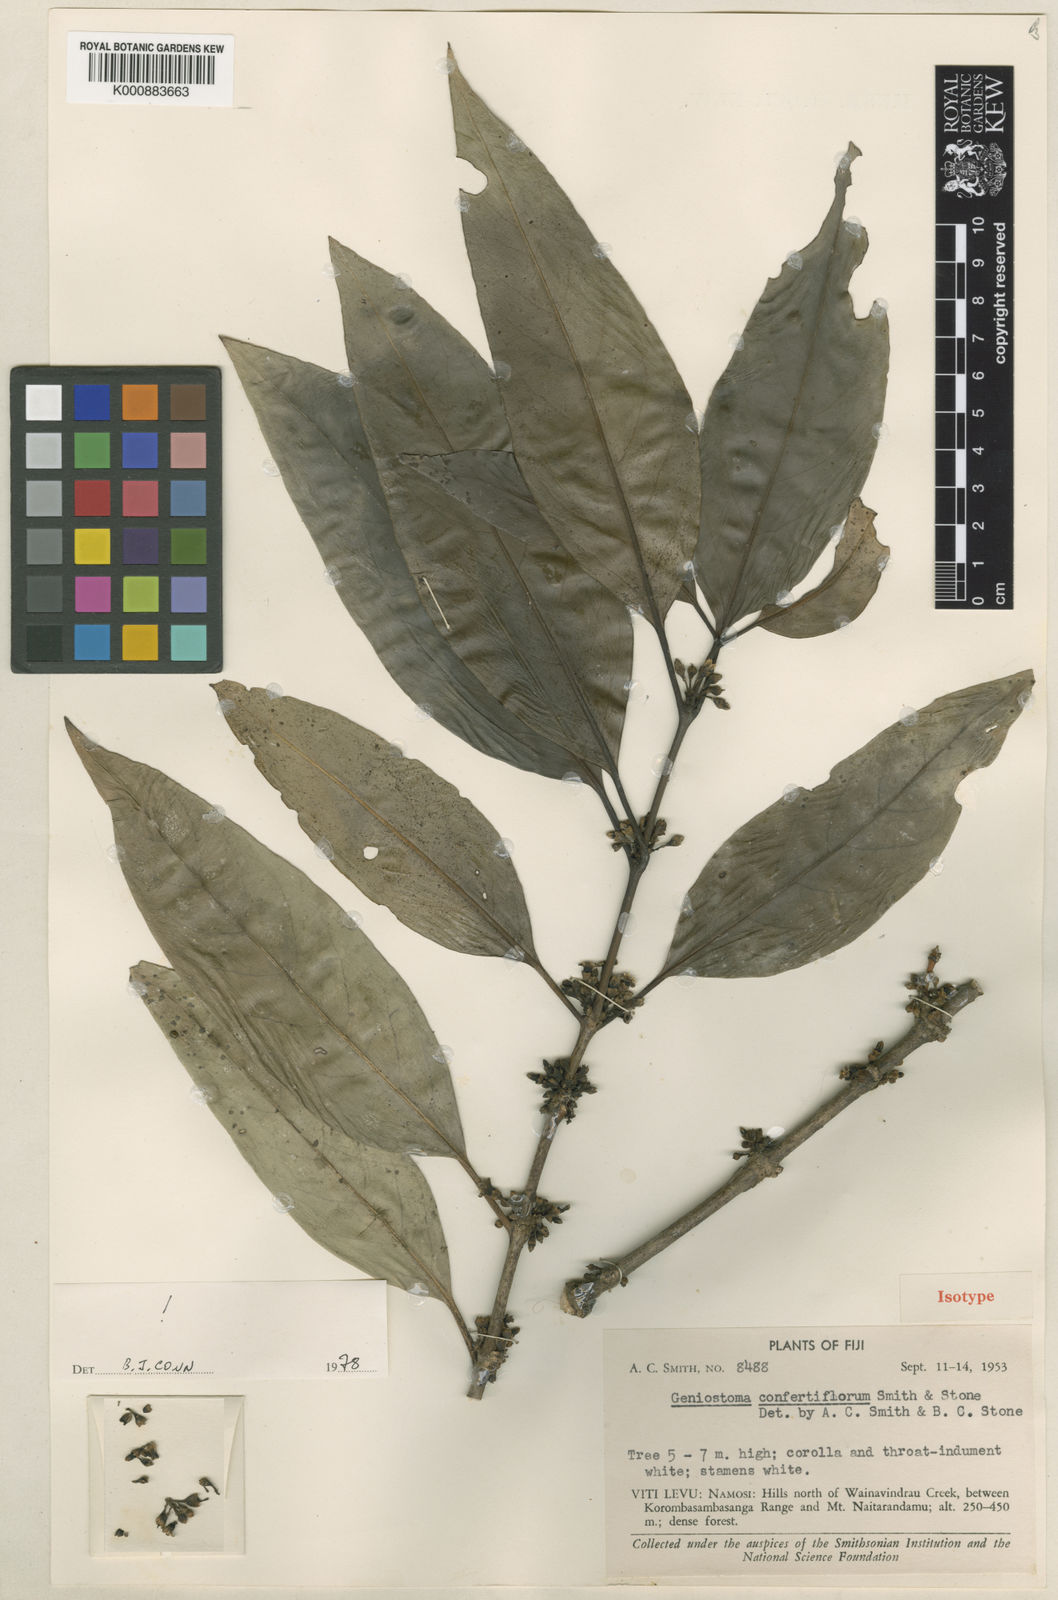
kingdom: Plantae
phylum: Tracheophyta
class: Magnoliopsida
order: Gentianales
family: Loganiaceae
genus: Geniostoma
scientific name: Geniostoma rupestre
